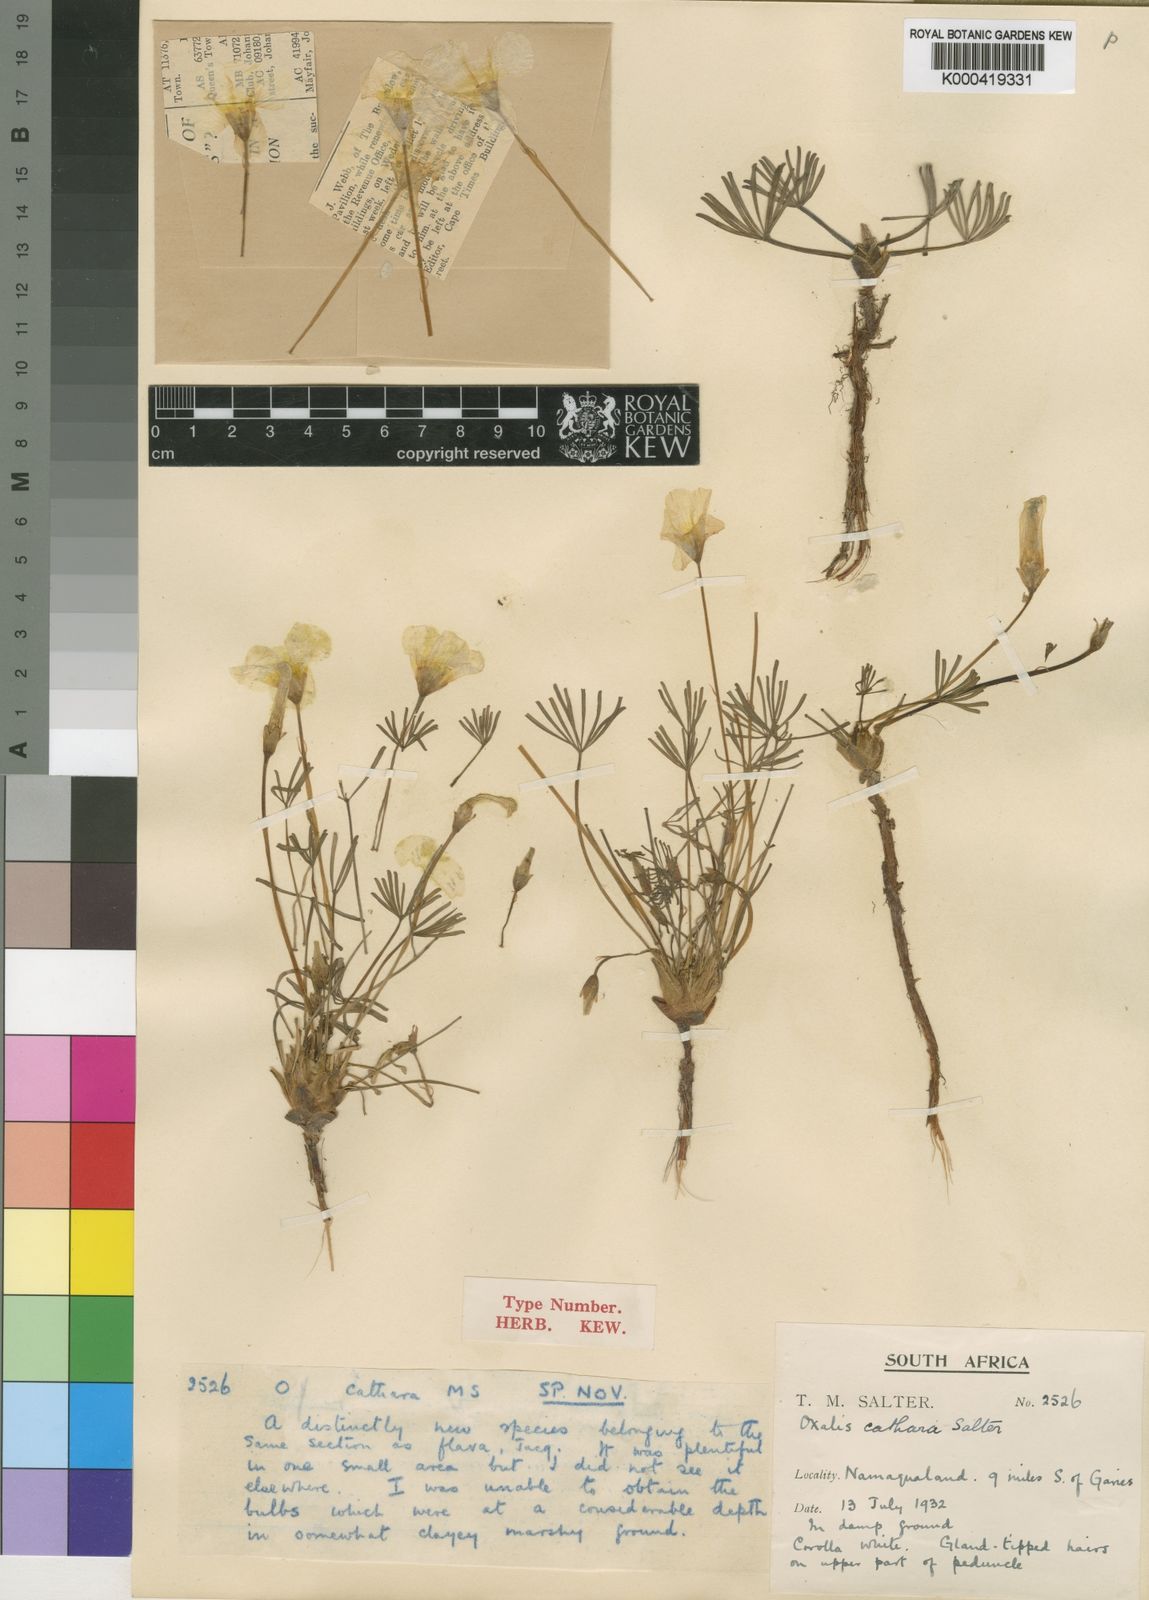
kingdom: Plantae
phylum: Tracheophyta
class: Magnoliopsida
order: Oxalidales
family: Oxalidaceae
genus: Oxalis
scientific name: Oxalis cathara
